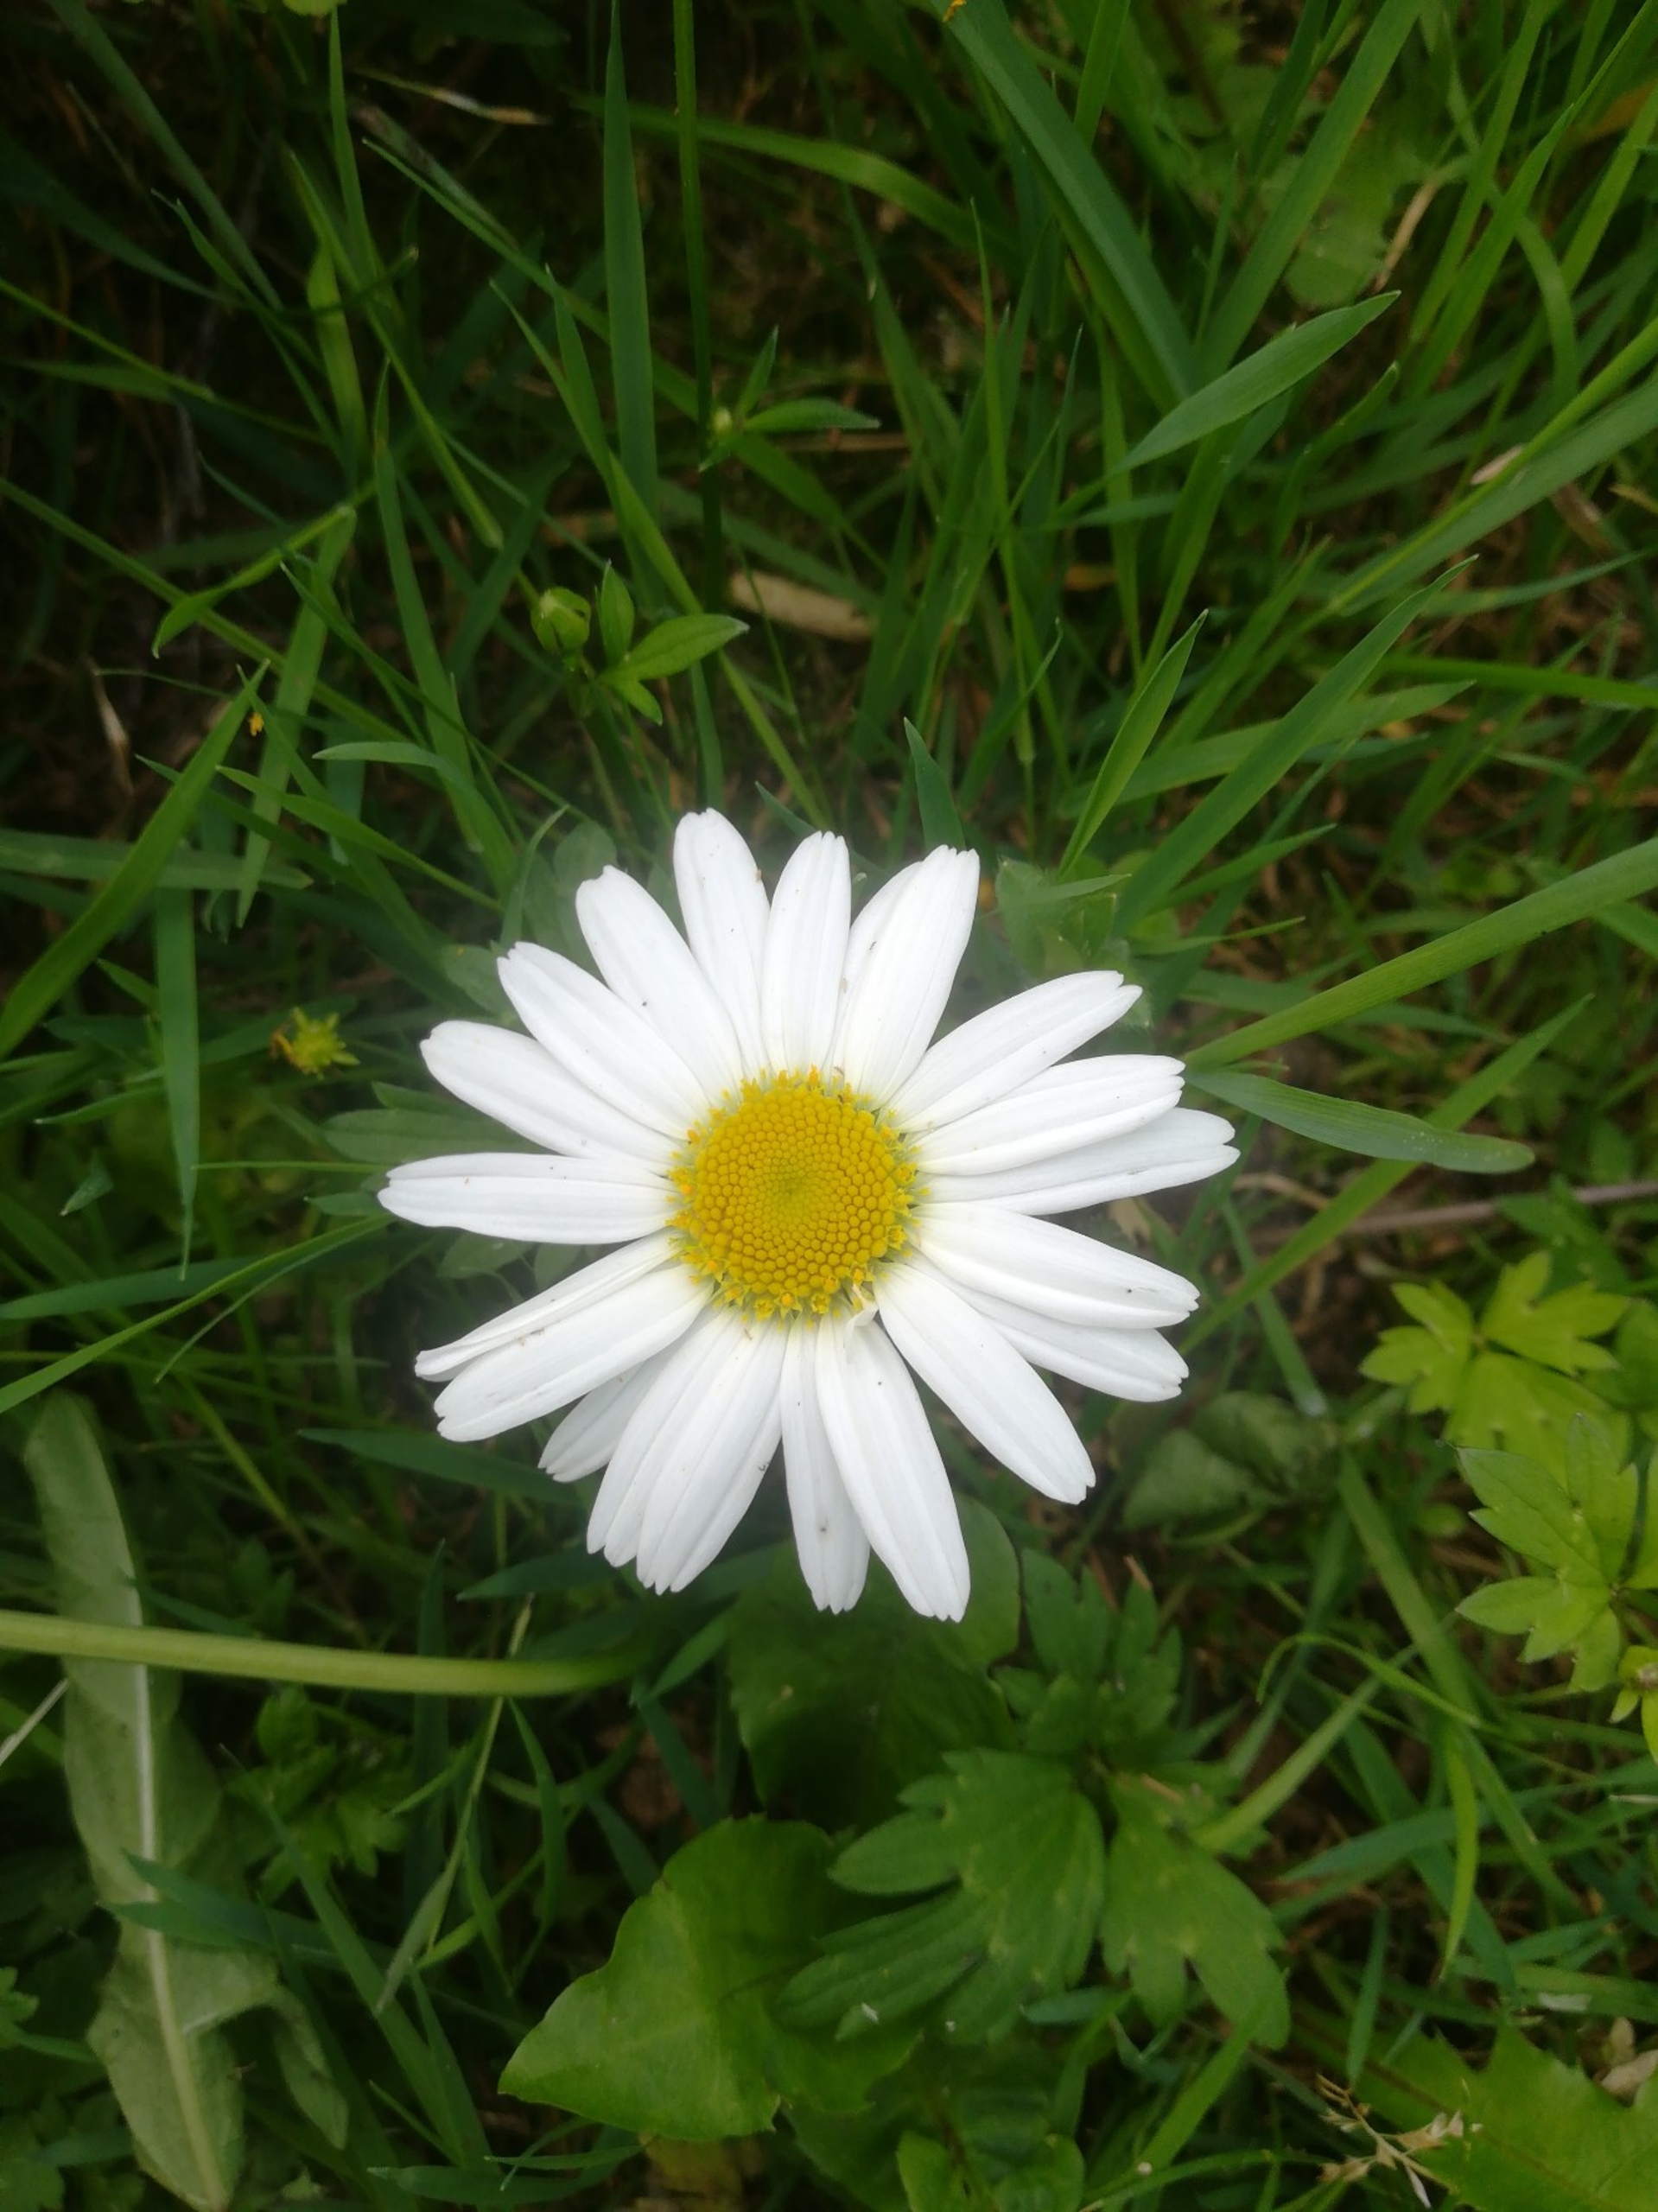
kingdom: Plantae
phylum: Tracheophyta
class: Magnoliopsida
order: Asterales
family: Asteraceae
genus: Leucanthemum
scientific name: Leucanthemum vulgare
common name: Hvid okseøje
